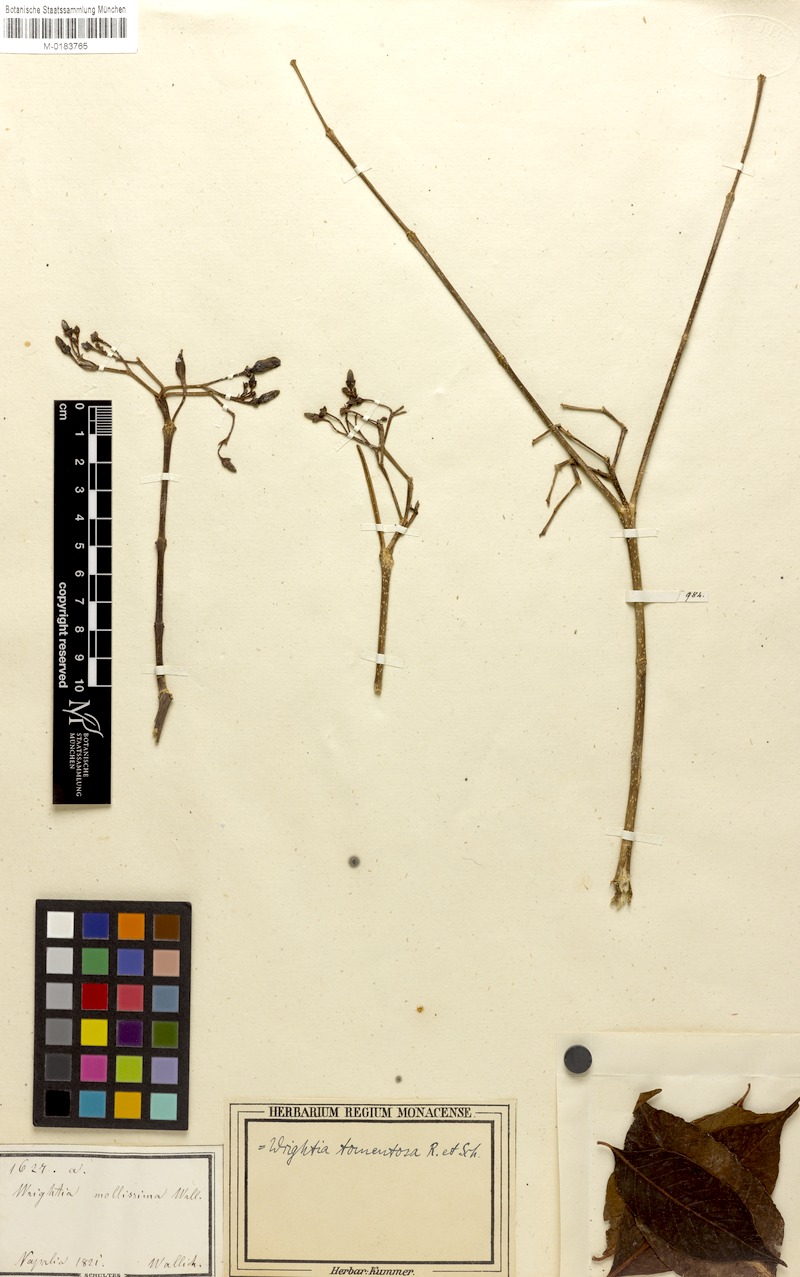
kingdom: Plantae
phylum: Tracheophyta
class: Magnoliopsida
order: Gentianales
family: Apocynaceae
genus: Wrightia
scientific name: Wrightia arborea
